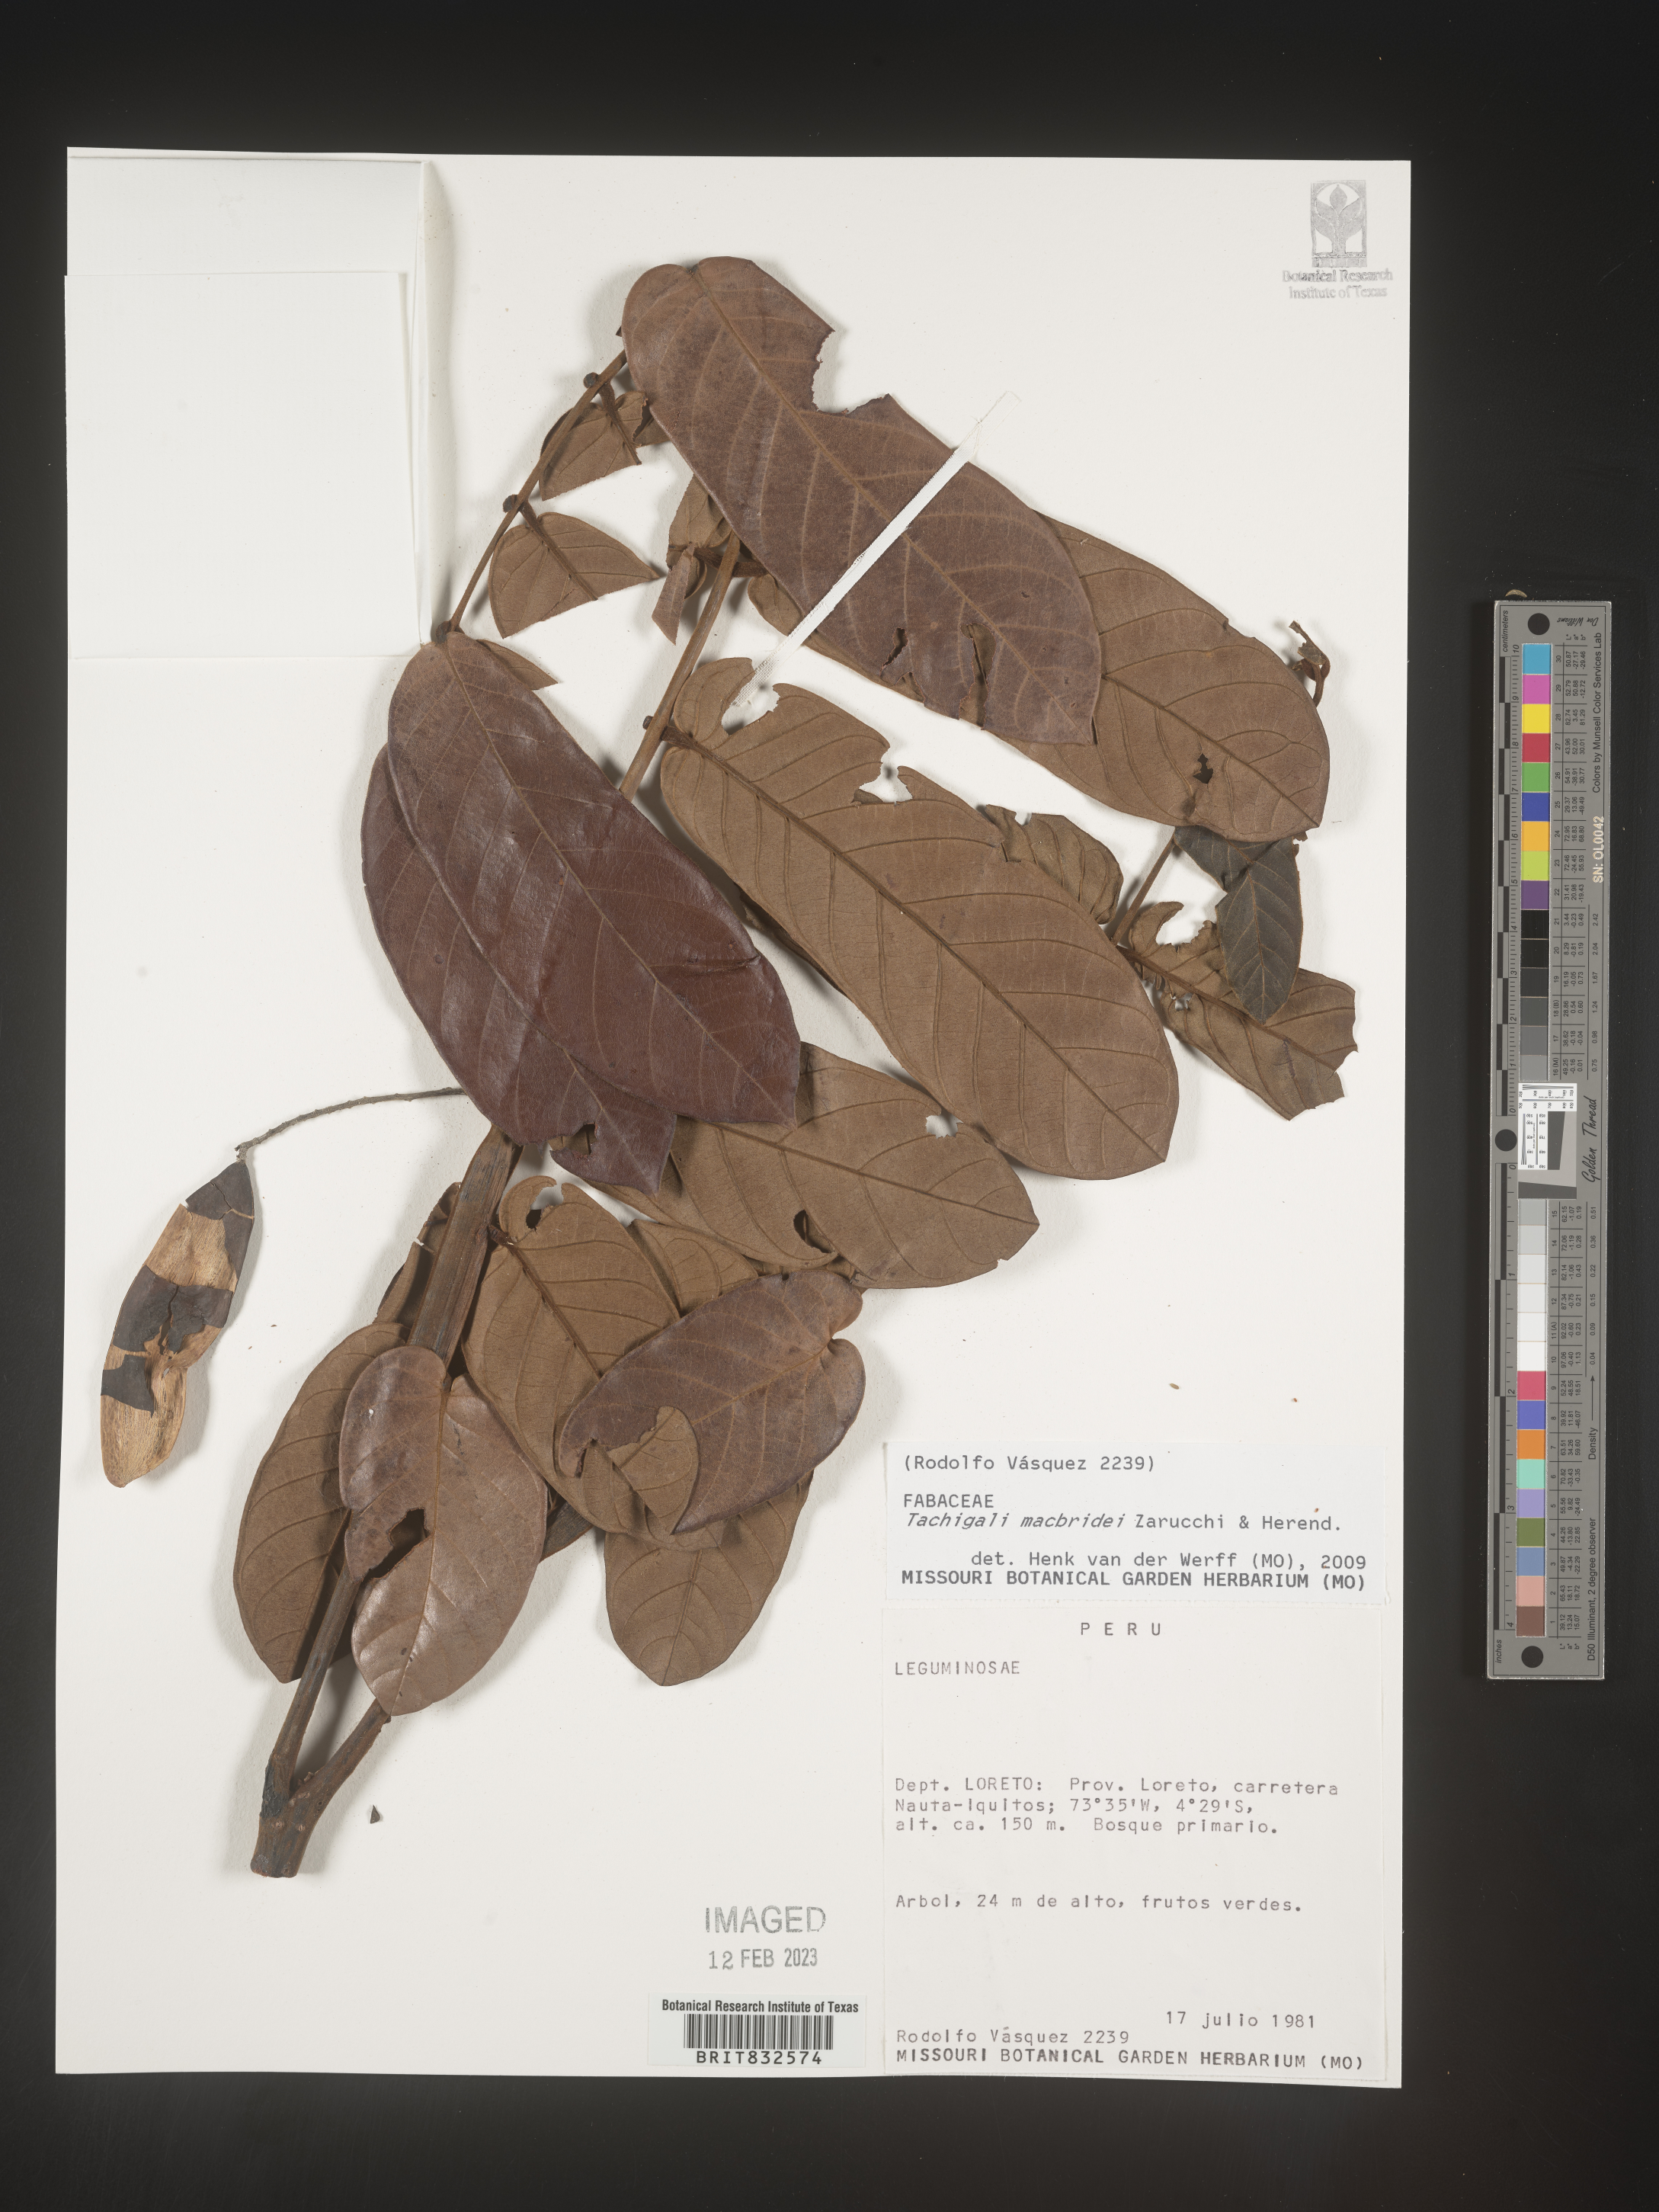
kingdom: Plantae
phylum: Tracheophyta
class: Magnoliopsida
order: Fabales
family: Fabaceae
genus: Tachigali
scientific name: Tachigali macbridei
